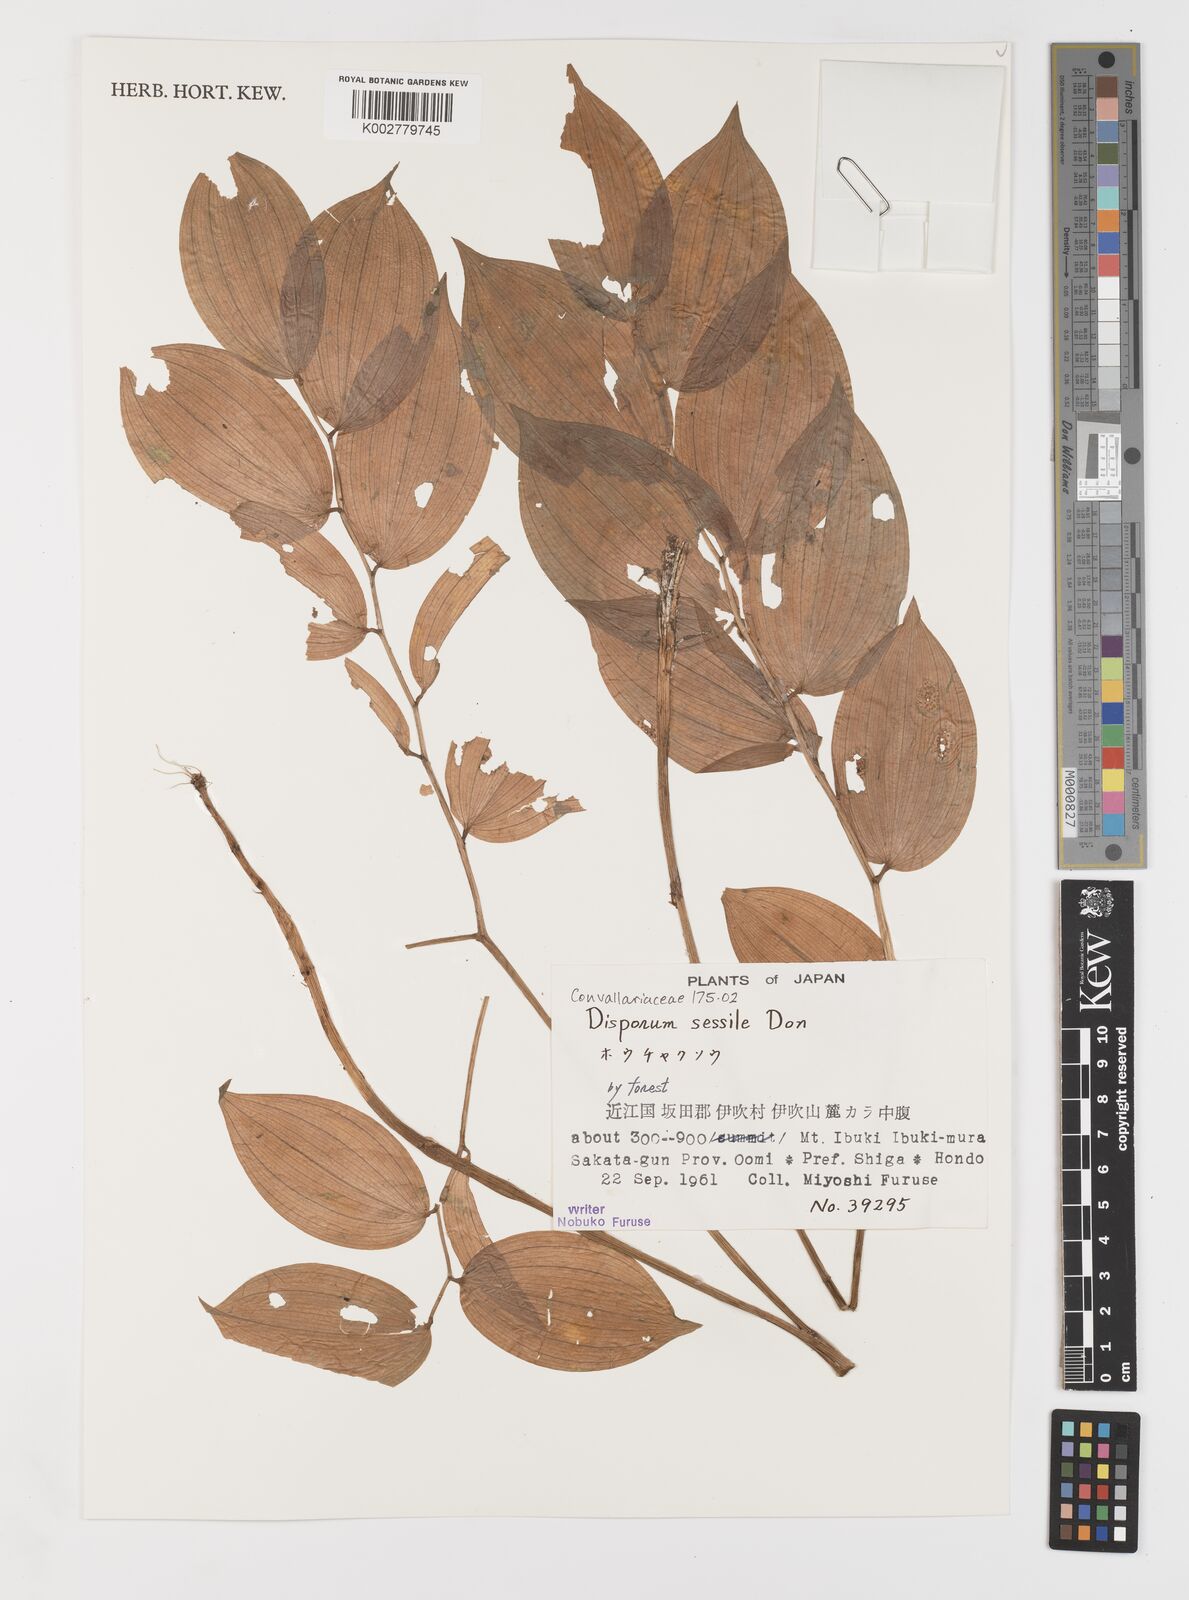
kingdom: Plantae
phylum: Tracheophyta
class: Liliopsida
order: Liliales
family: Colchicaceae
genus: Disporum
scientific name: Disporum sessile
